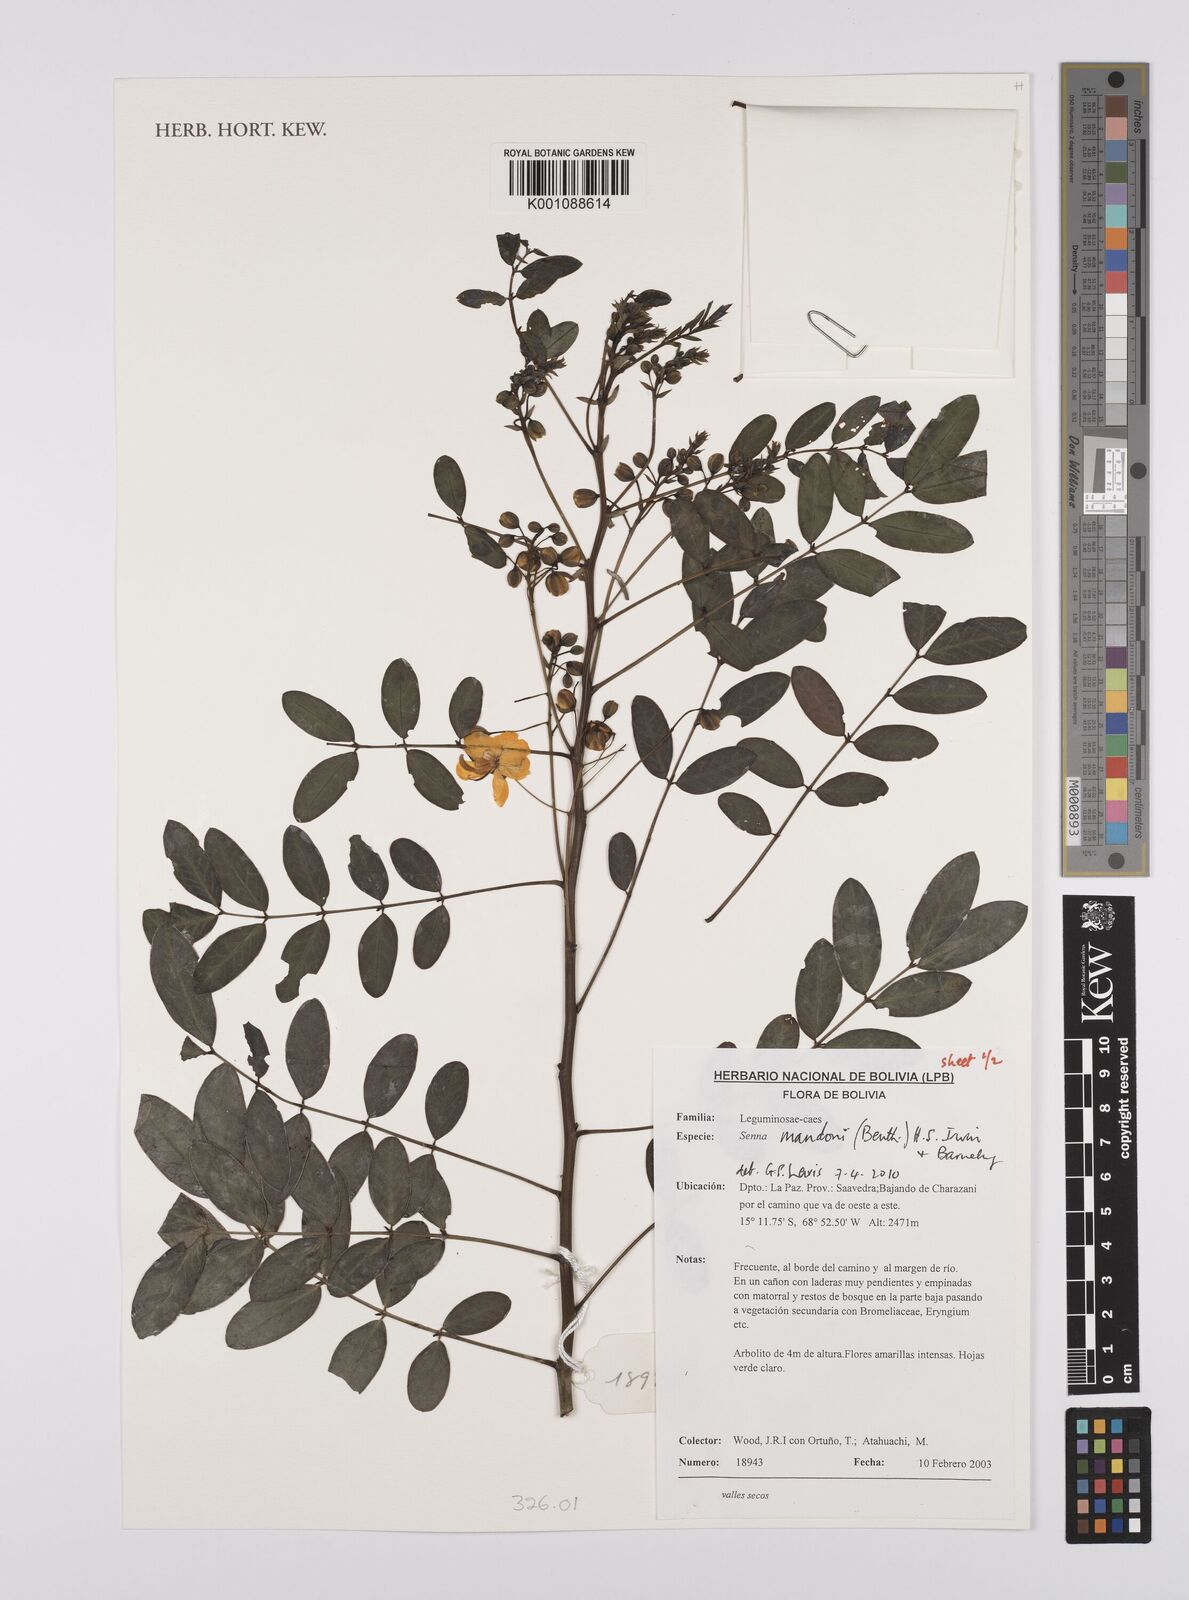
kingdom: Plantae
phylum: Tracheophyta
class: Magnoliopsida
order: Fabales
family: Fabaceae
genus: Senna
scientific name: Senna mandonii
